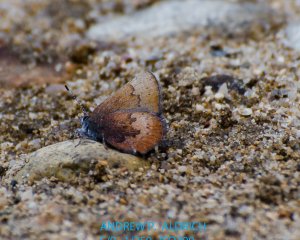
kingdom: Animalia
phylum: Arthropoda
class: Insecta
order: Lepidoptera
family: Lycaenidae
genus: Incisalia
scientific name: Incisalia irioides
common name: Brown Elfin
